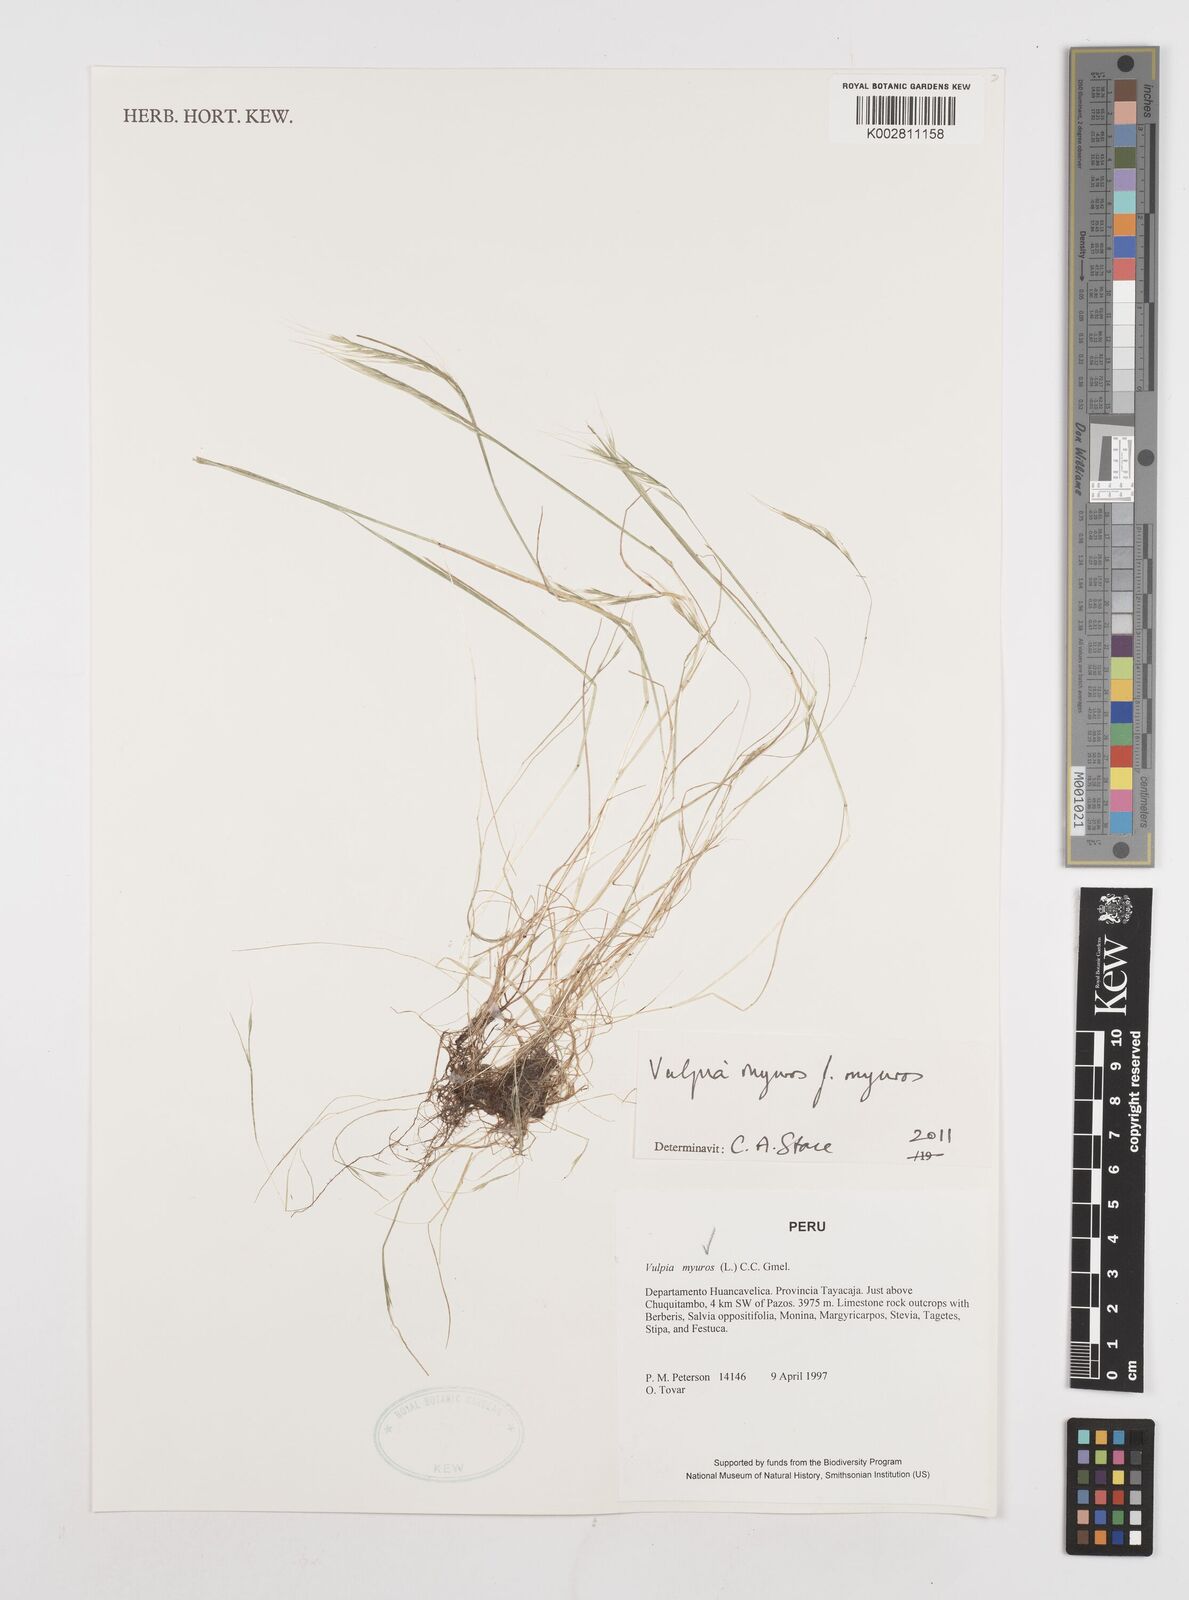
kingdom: Plantae
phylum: Tracheophyta
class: Liliopsida
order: Poales
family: Poaceae
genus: Festuca
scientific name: Festuca myuros
